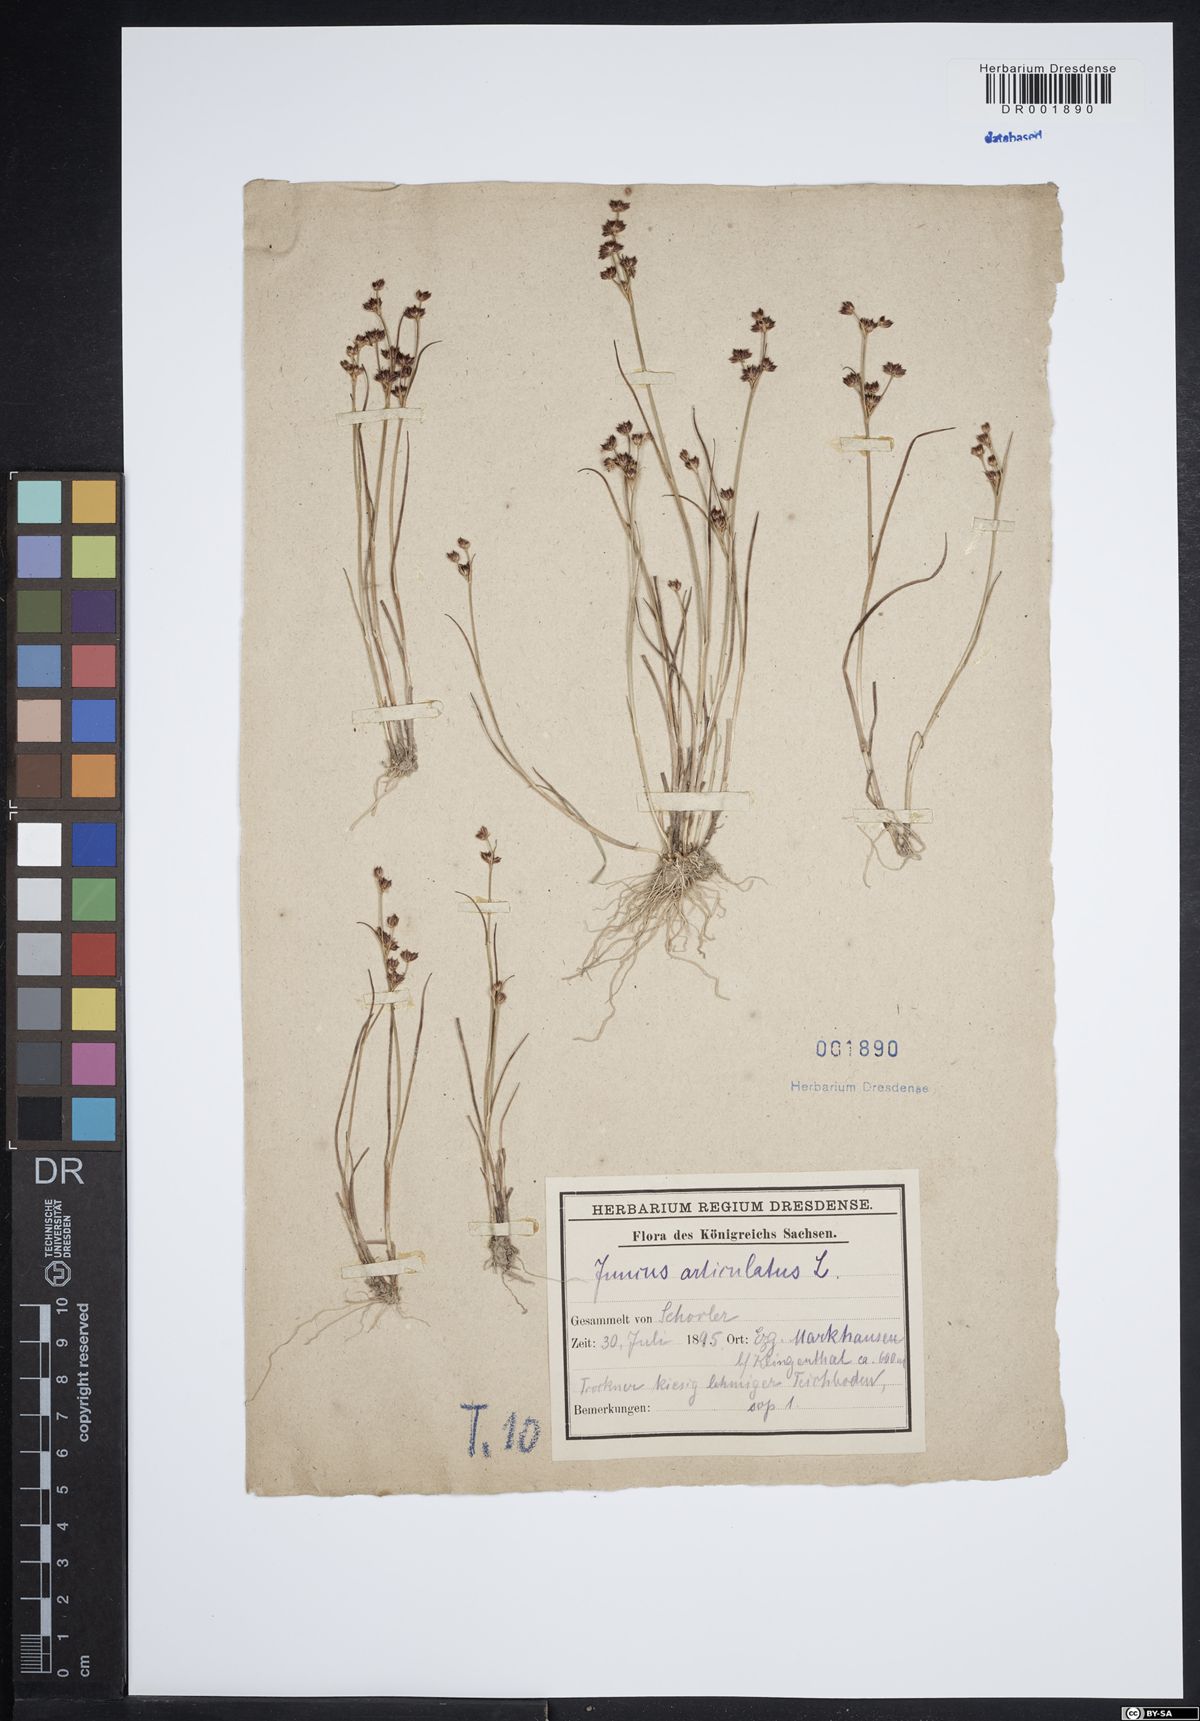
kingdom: Plantae
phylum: Tracheophyta
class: Liliopsida
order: Poales
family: Juncaceae
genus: Juncus
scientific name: Juncus articulatus
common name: Jointed rush
